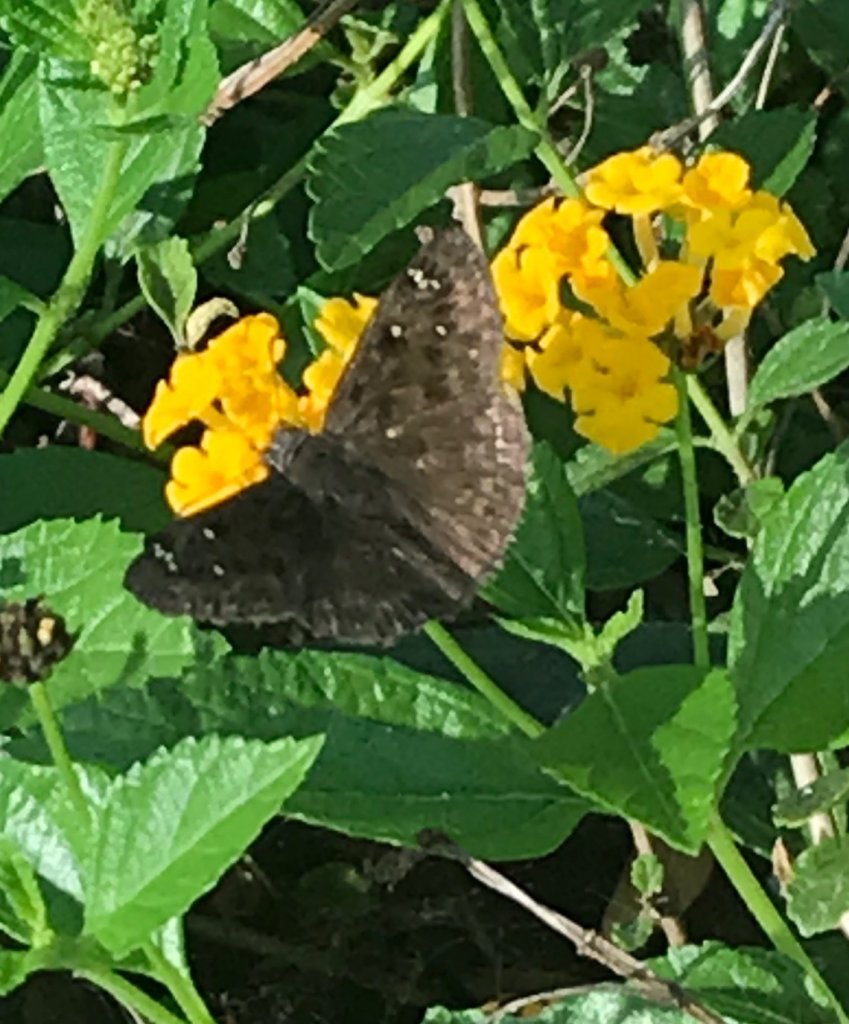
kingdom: Animalia
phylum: Arthropoda
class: Insecta
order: Lepidoptera
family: Hesperiidae
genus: Gesta
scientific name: Gesta
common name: Horace's Duskywing
